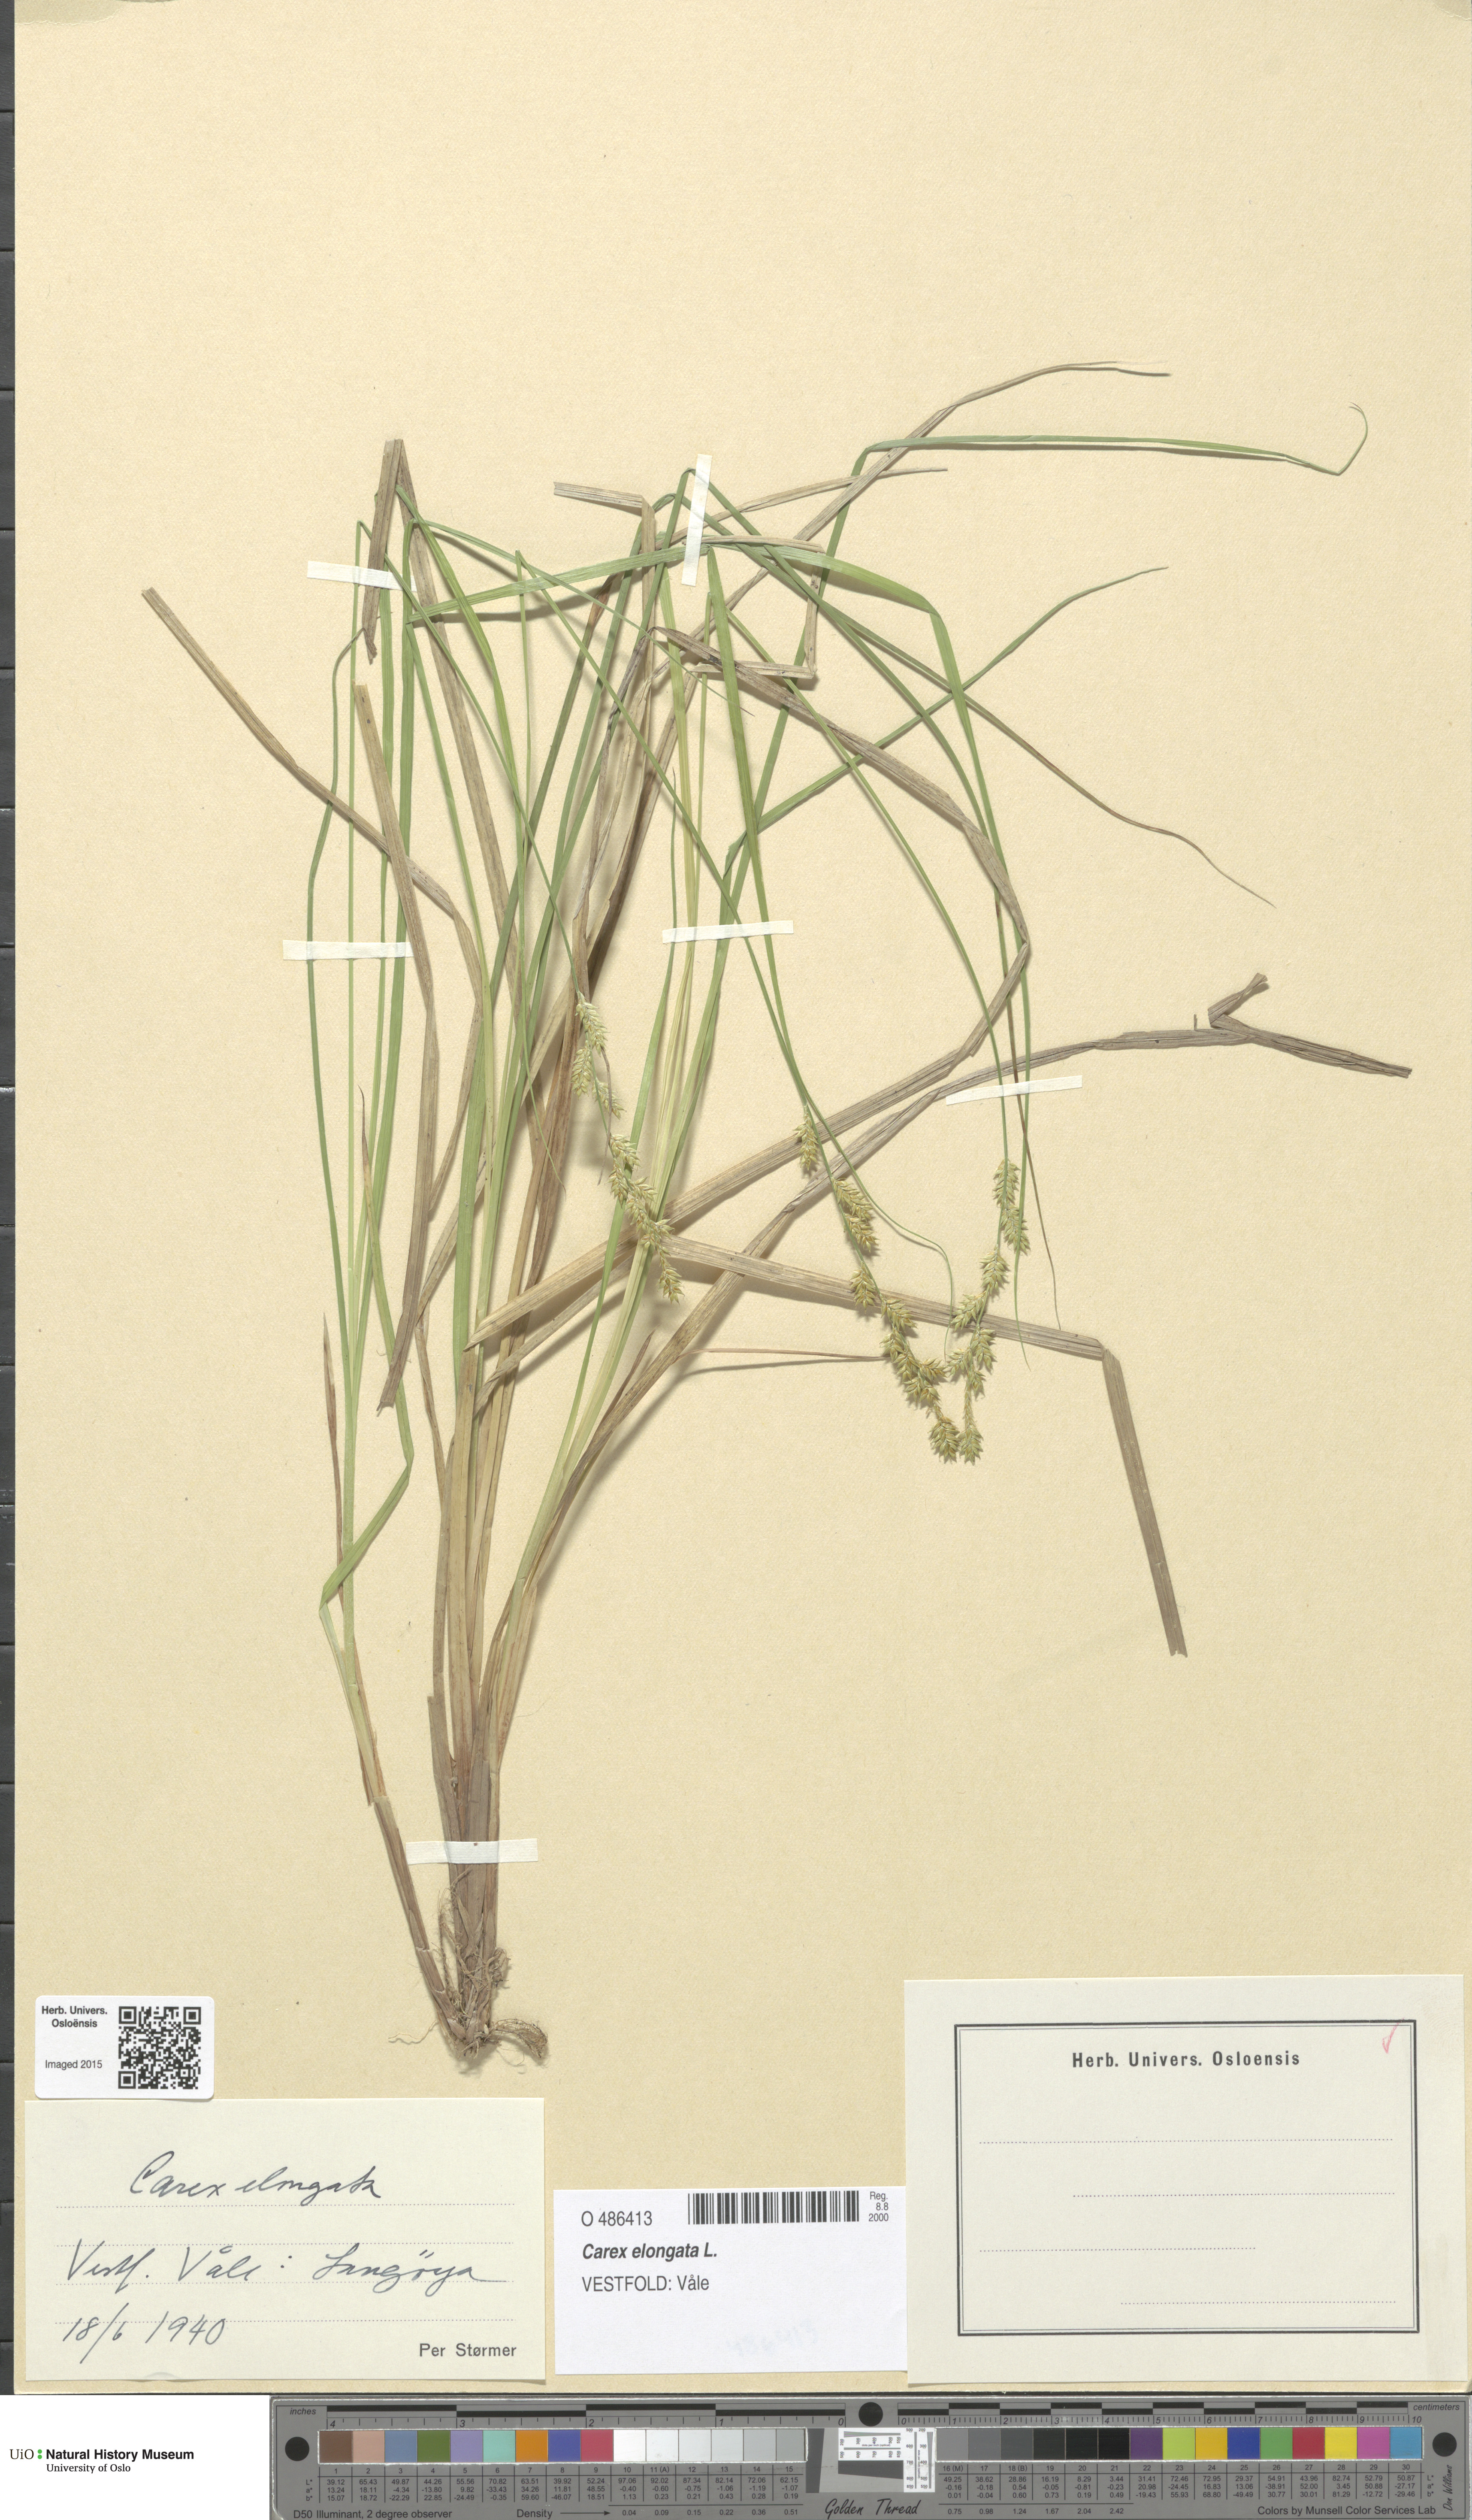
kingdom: Plantae
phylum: Tracheophyta
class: Liliopsida
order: Poales
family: Cyperaceae
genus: Carex
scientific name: Carex elongata
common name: Elongated sedge
